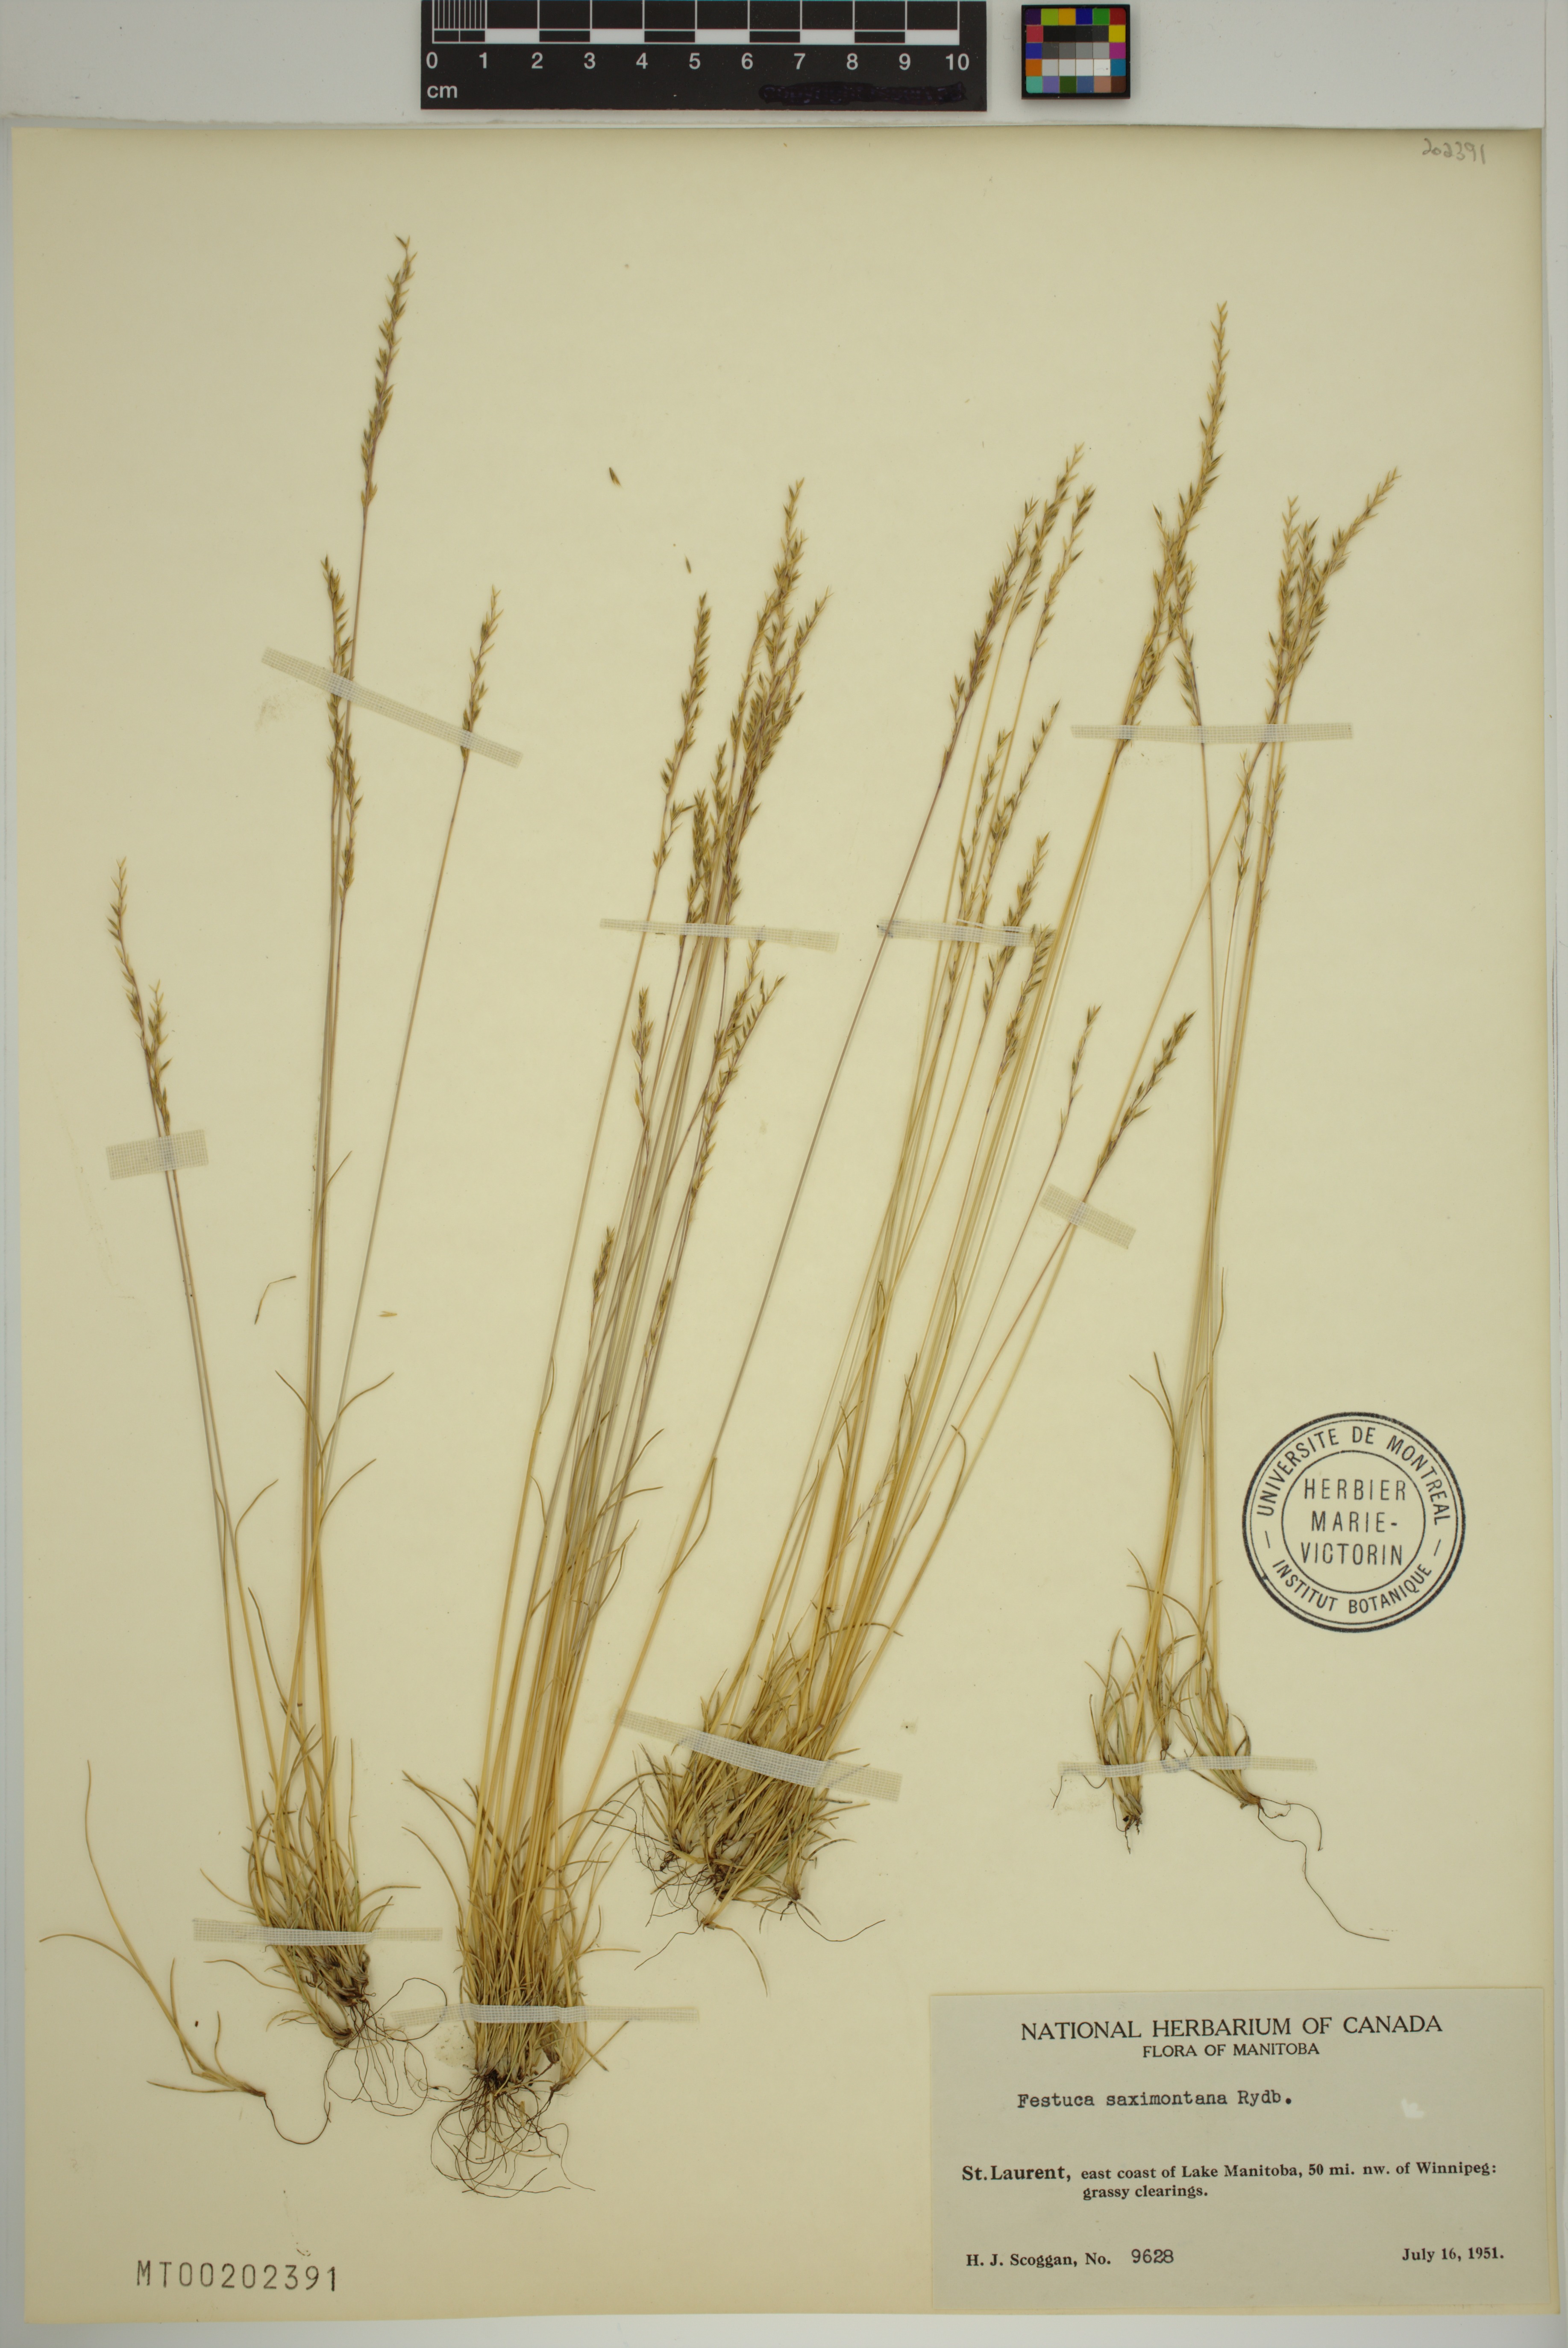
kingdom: Plantae
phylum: Tracheophyta
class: Liliopsida
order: Poales
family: Poaceae
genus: Festuca
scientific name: Festuca saximontana
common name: Mountain fescue
